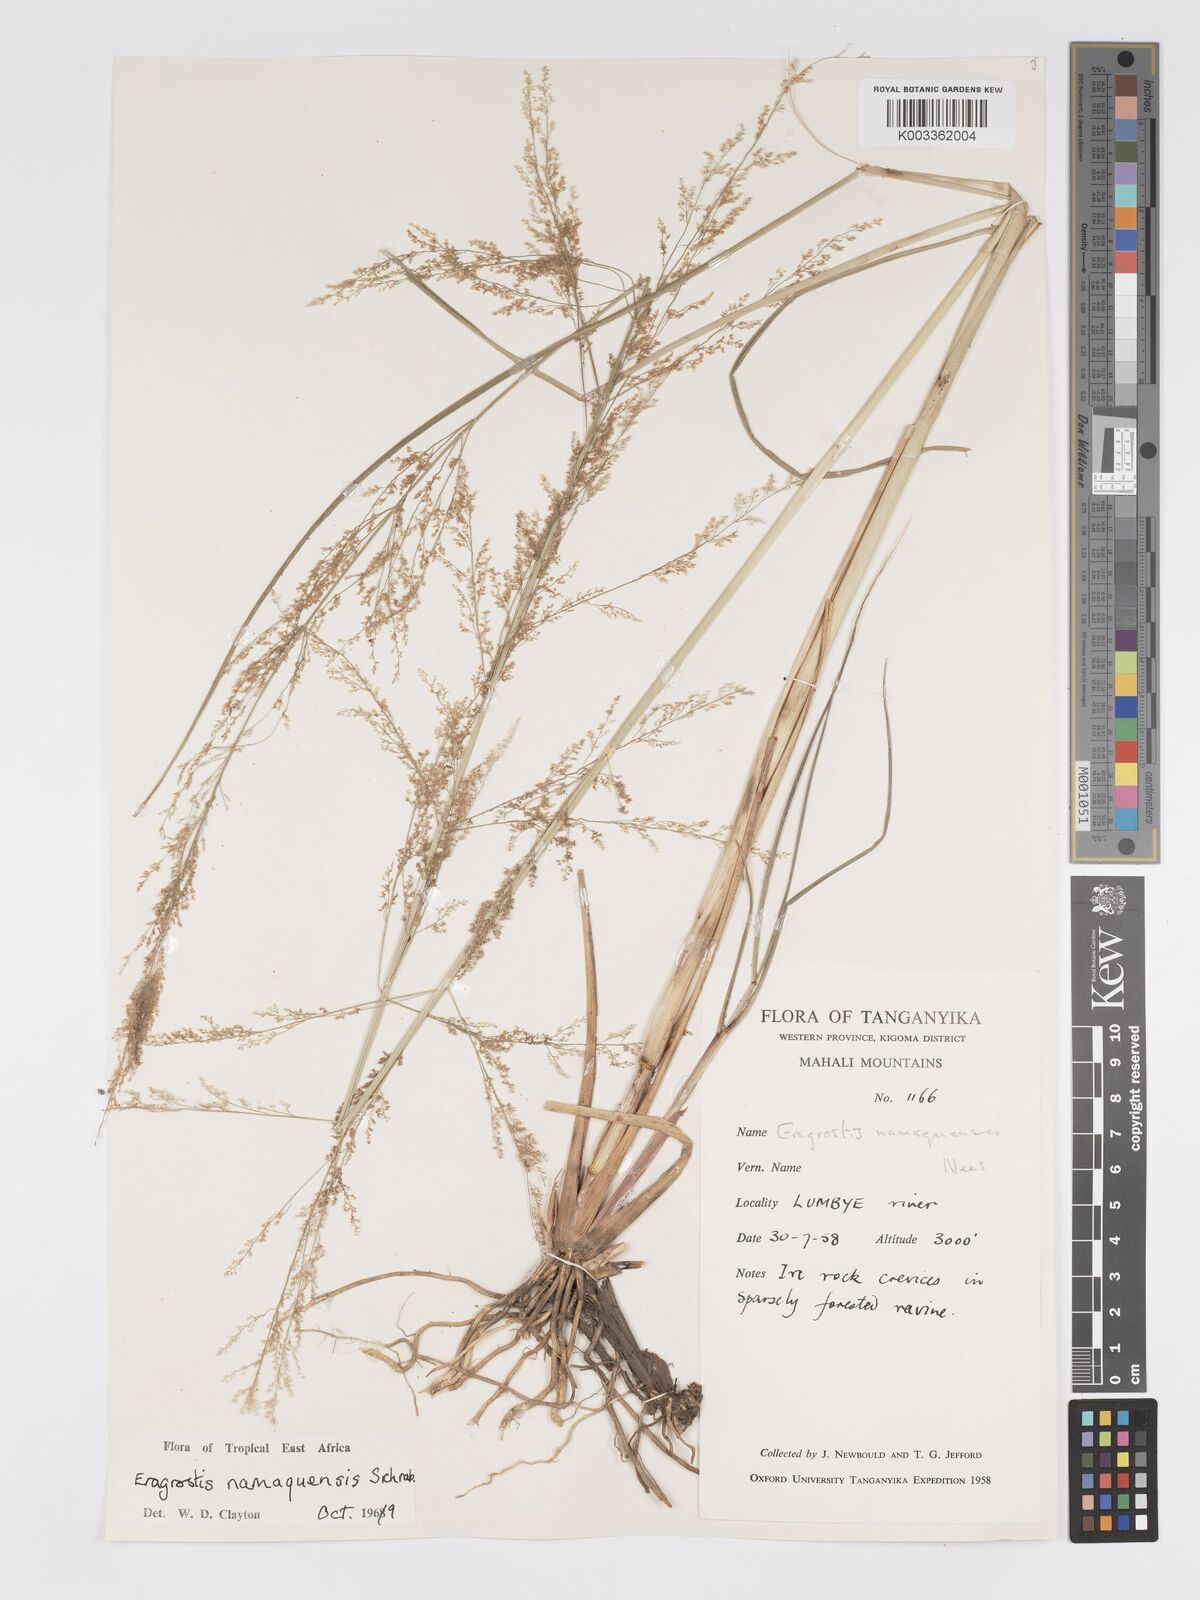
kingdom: Plantae
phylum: Tracheophyta
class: Liliopsida
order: Poales
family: Poaceae
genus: Eragrostis
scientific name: Eragrostis japonica
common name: Pond lovegrass
